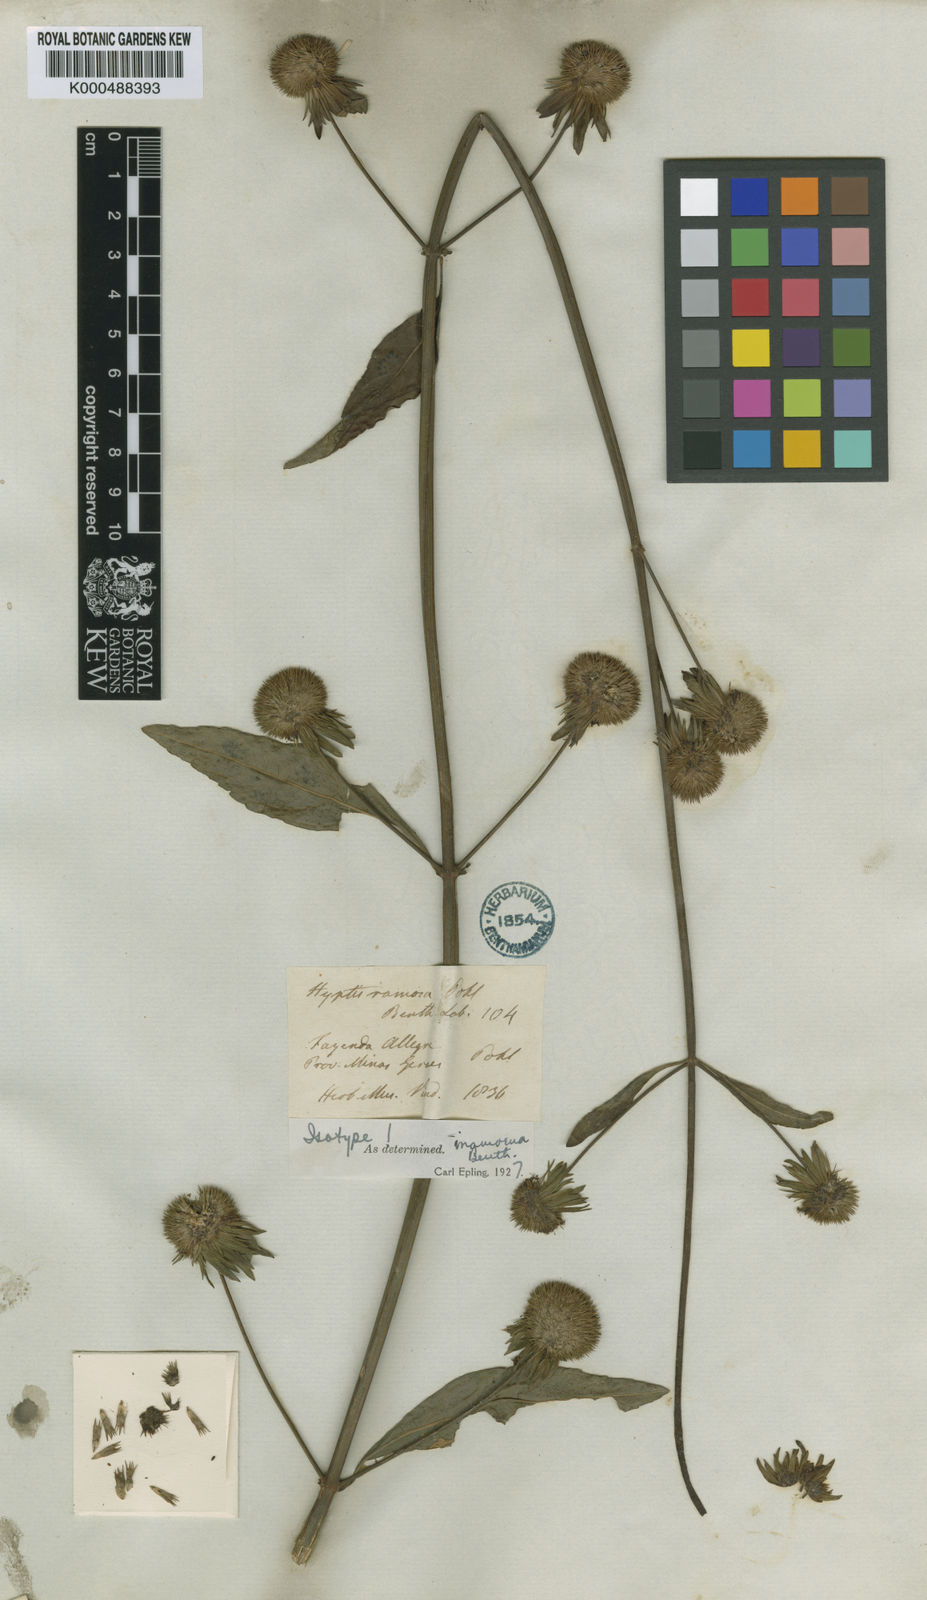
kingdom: Plantae
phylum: Tracheophyta
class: Magnoliopsida
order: Lamiales
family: Lamiaceae
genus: Hyptis
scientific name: Hyptis ramosa
